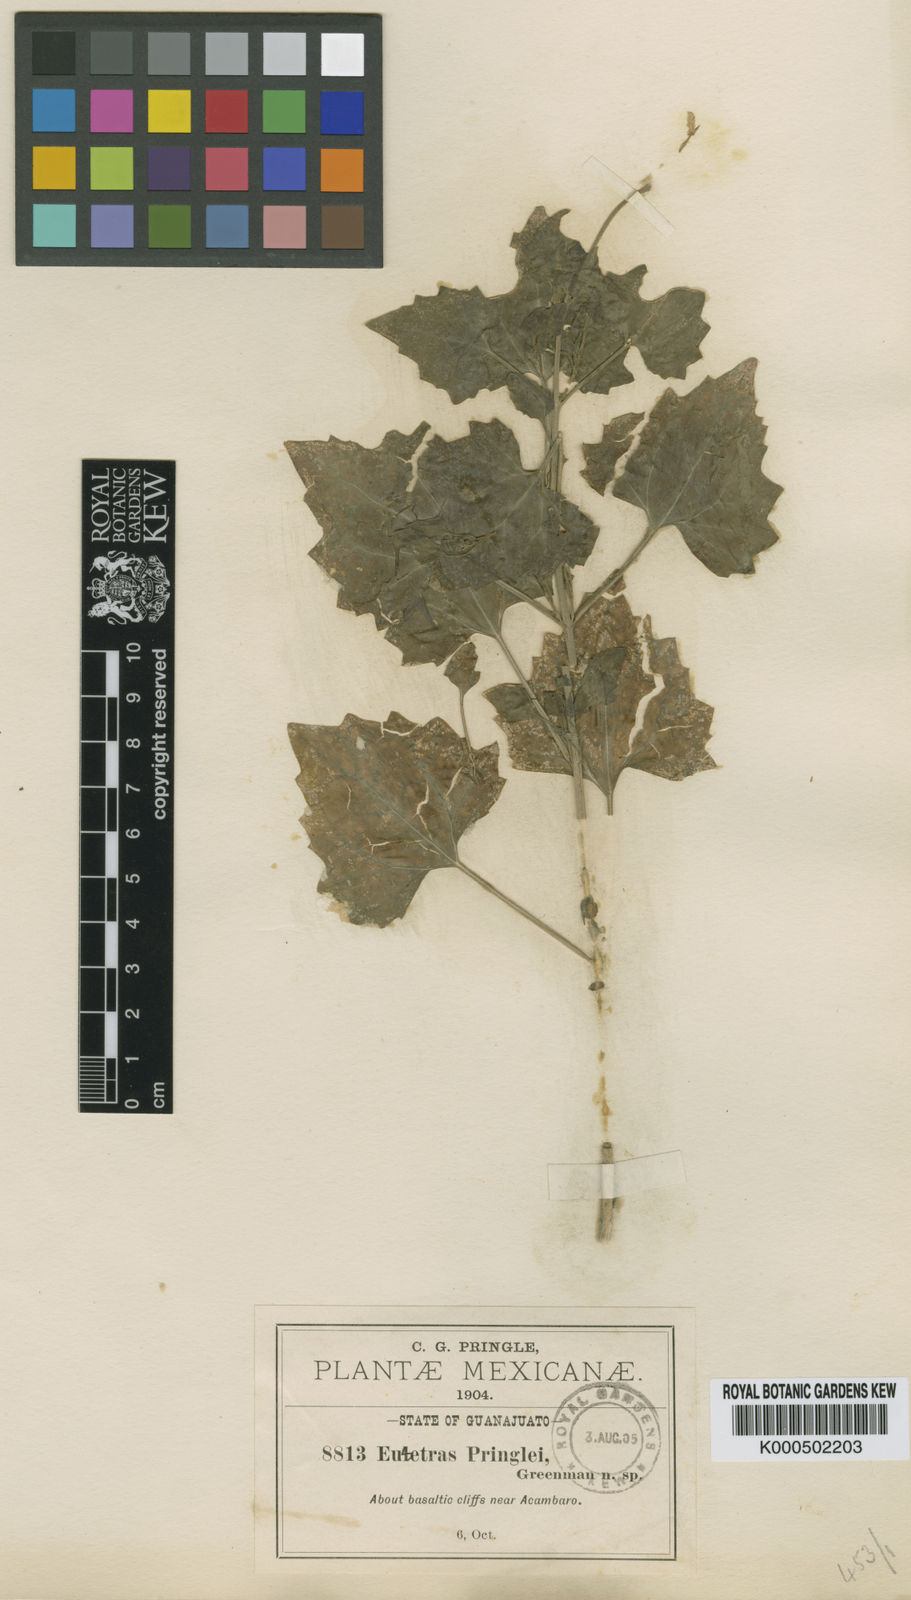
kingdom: Plantae
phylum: Tracheophyta
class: Magnoliopsida
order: Asterales
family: Asteraceae
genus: Eutetras
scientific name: Eutetras pringlei
